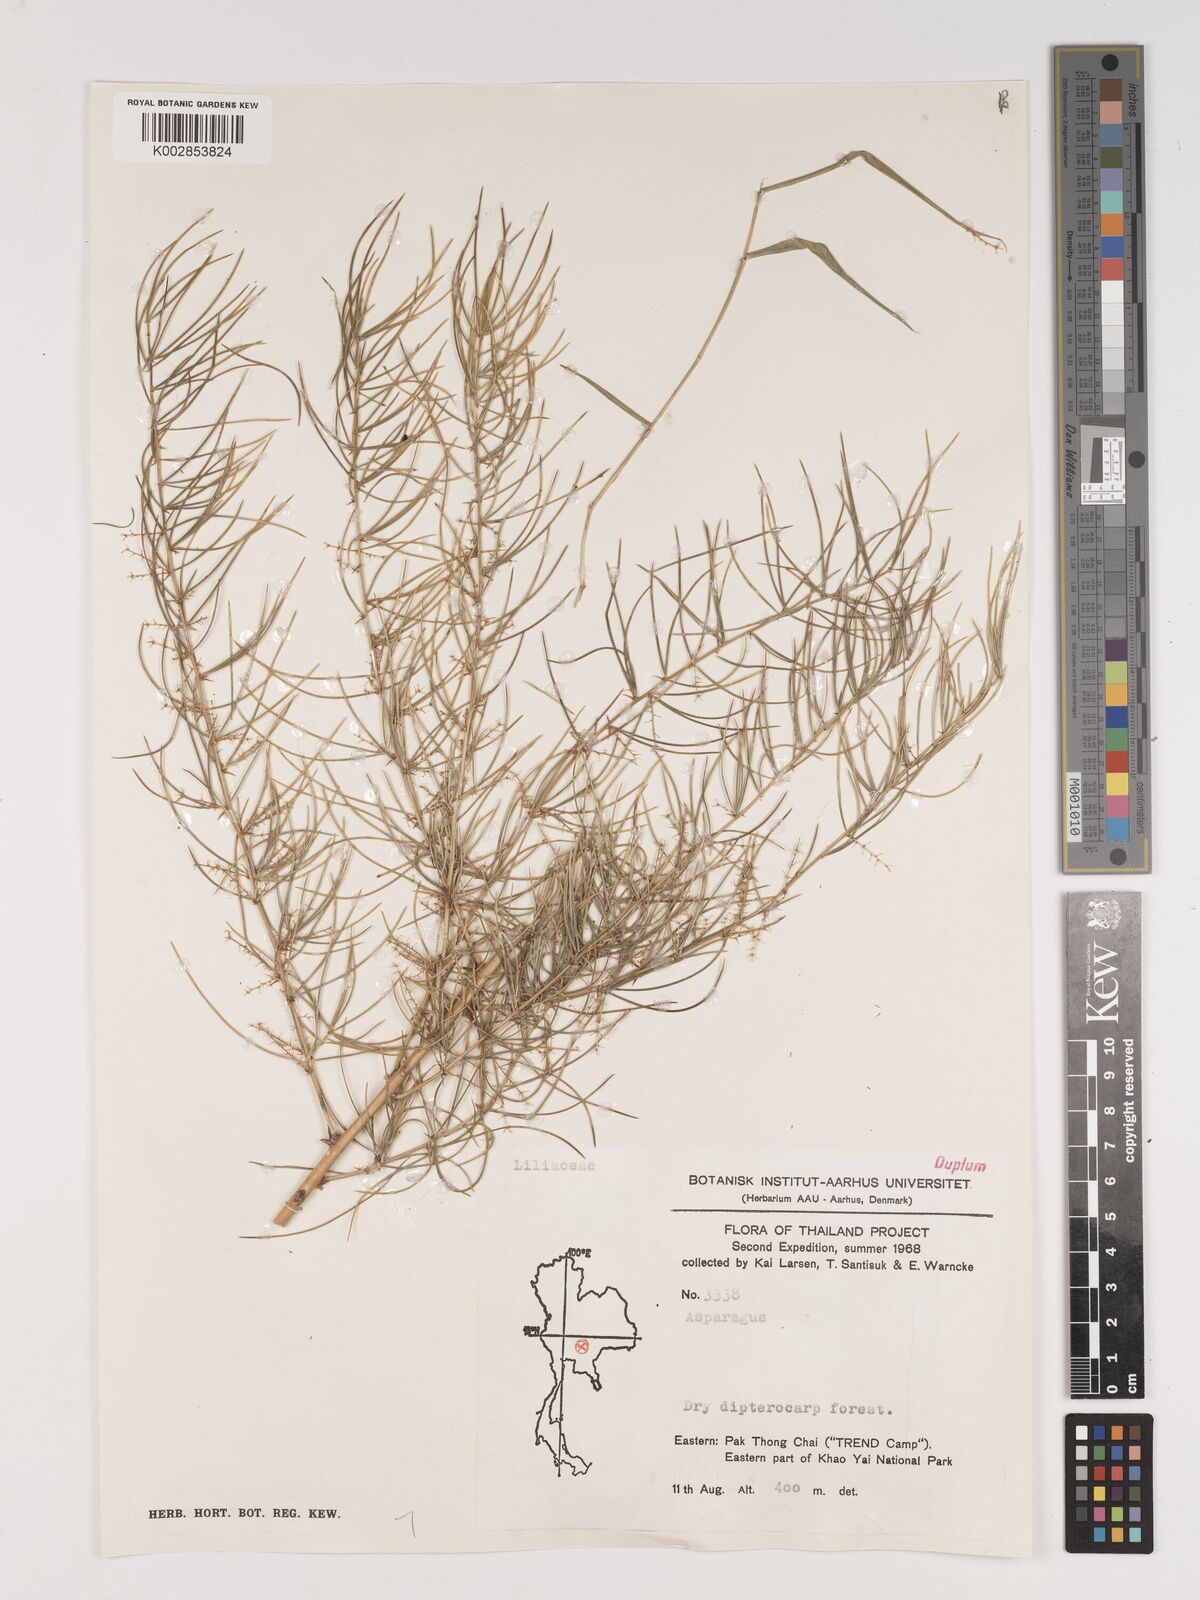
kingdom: Plantae
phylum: Tracheophyta
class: Liliopsida
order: Asparagales
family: Asparagaceae
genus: Asparagus
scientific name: Asparagus
